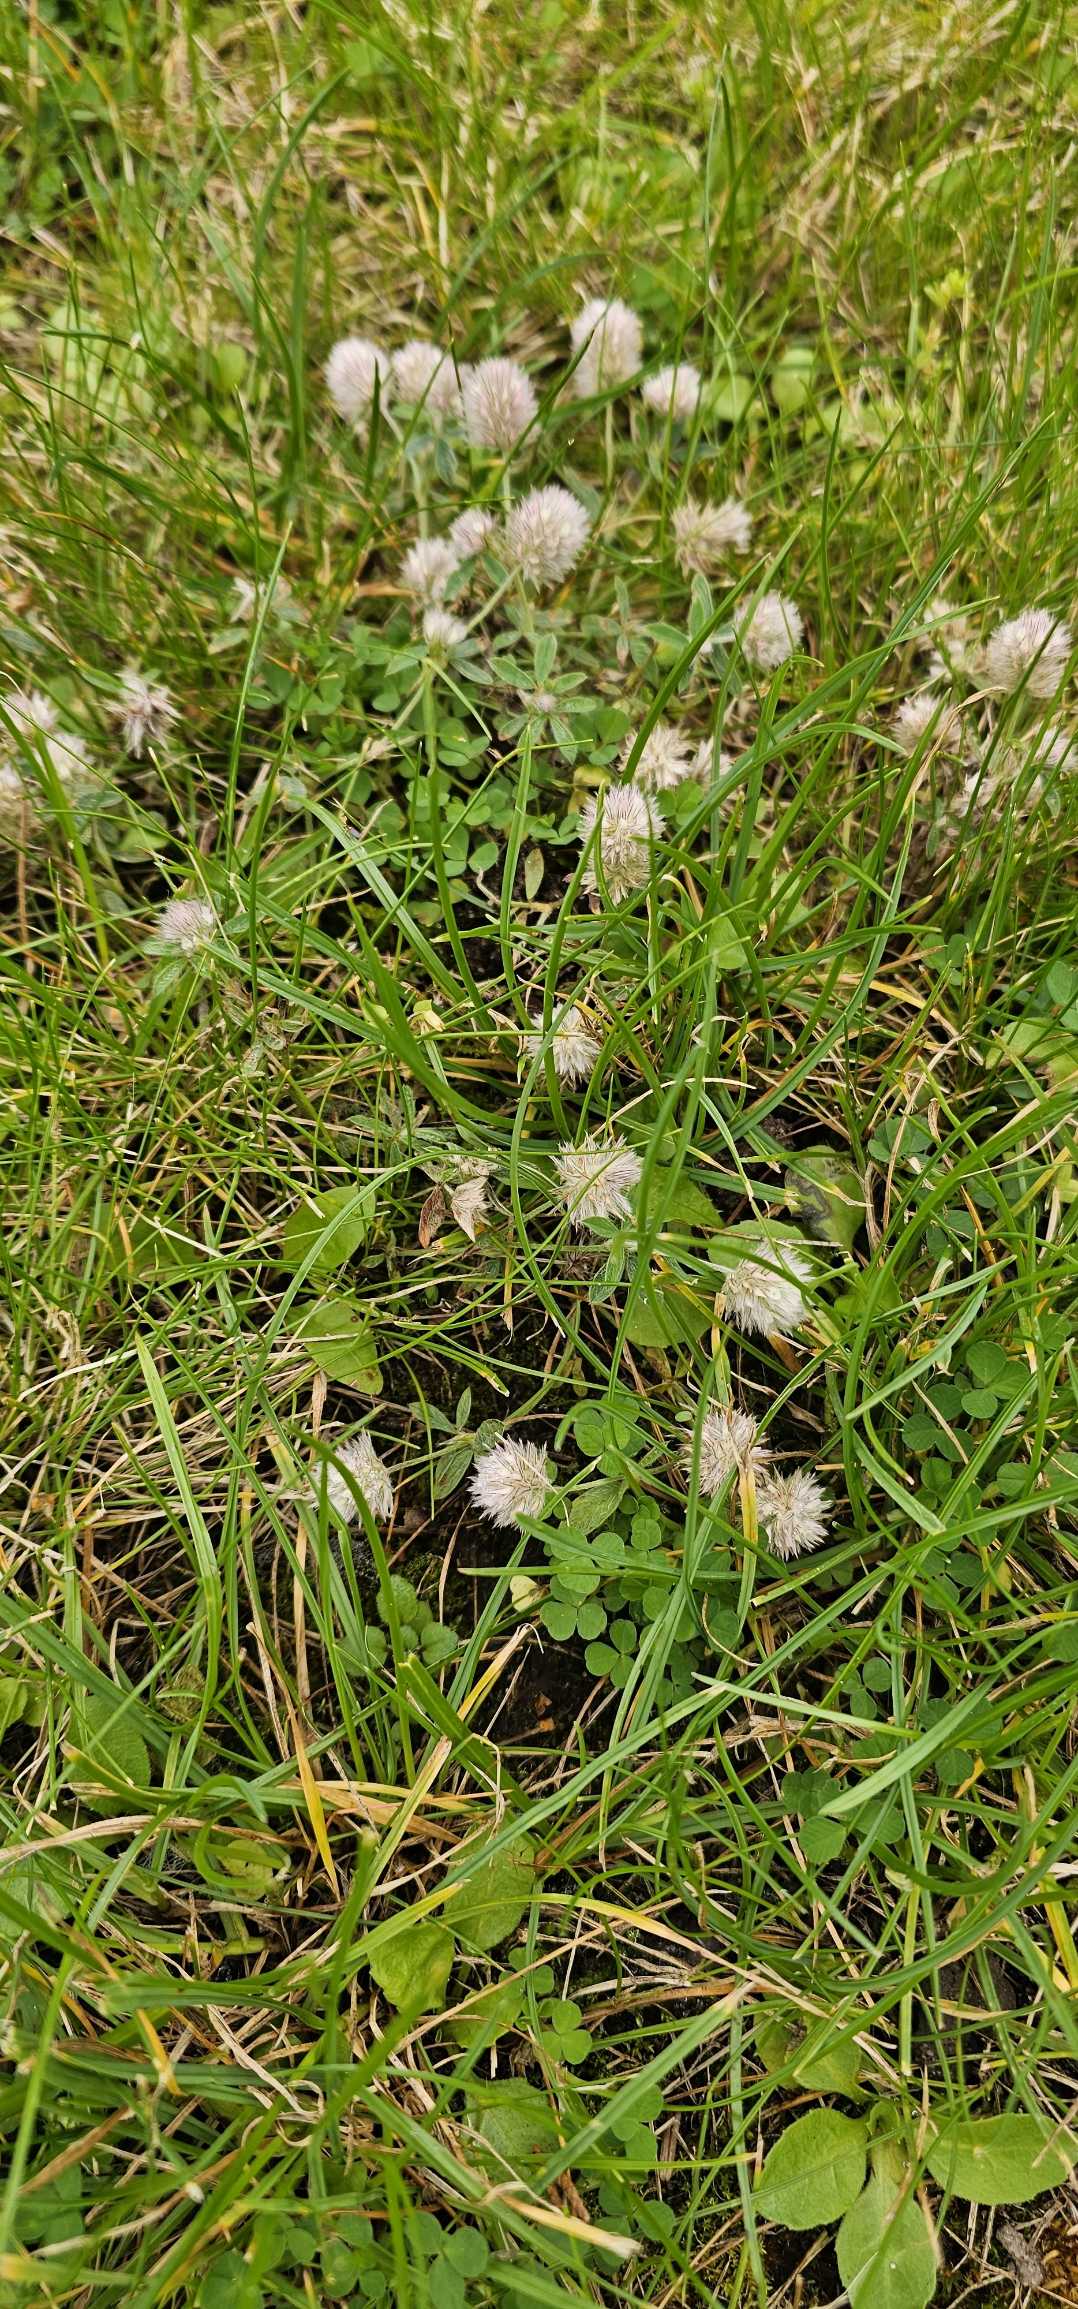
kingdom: Plantae
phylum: Tracheophyta
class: Magnoliopsida
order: Fabales
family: Fabaceae
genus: Trifolium
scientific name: Trifolium arvense
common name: Hare-kløver
